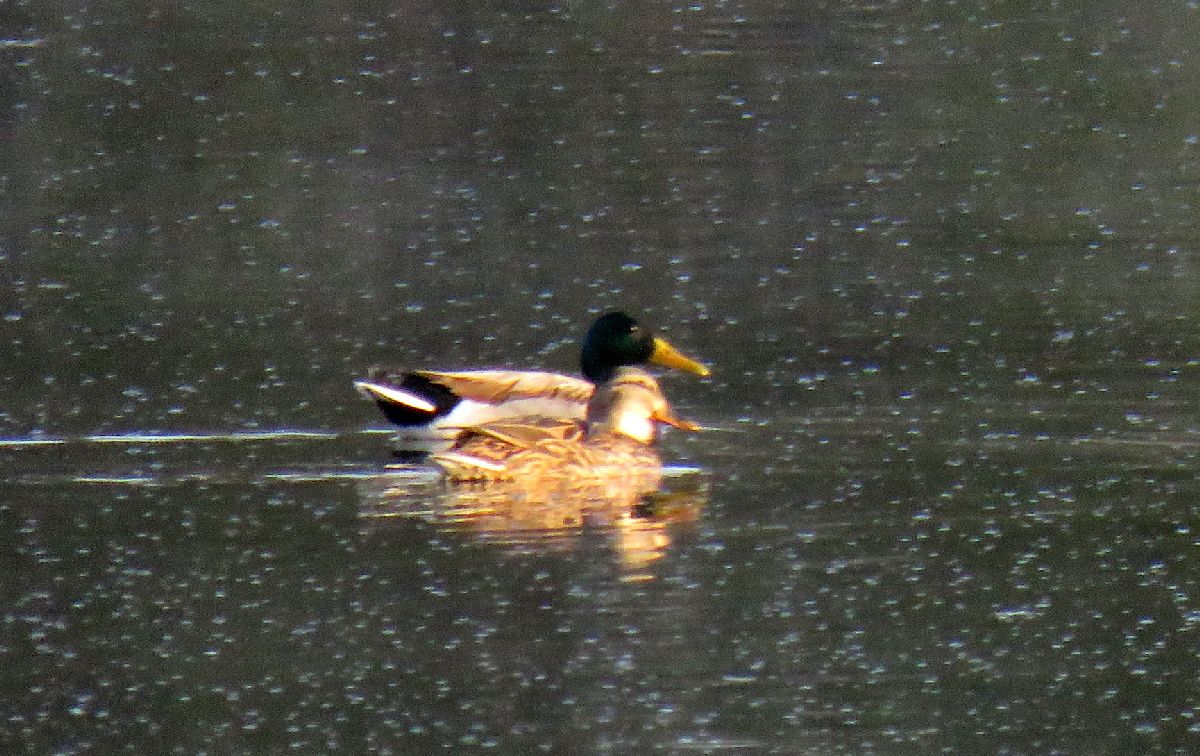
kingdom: Animalia
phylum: Chordata
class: Aves
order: Anseriformes
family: Anatidae
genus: Anas
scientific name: Anas platyrhynchos
